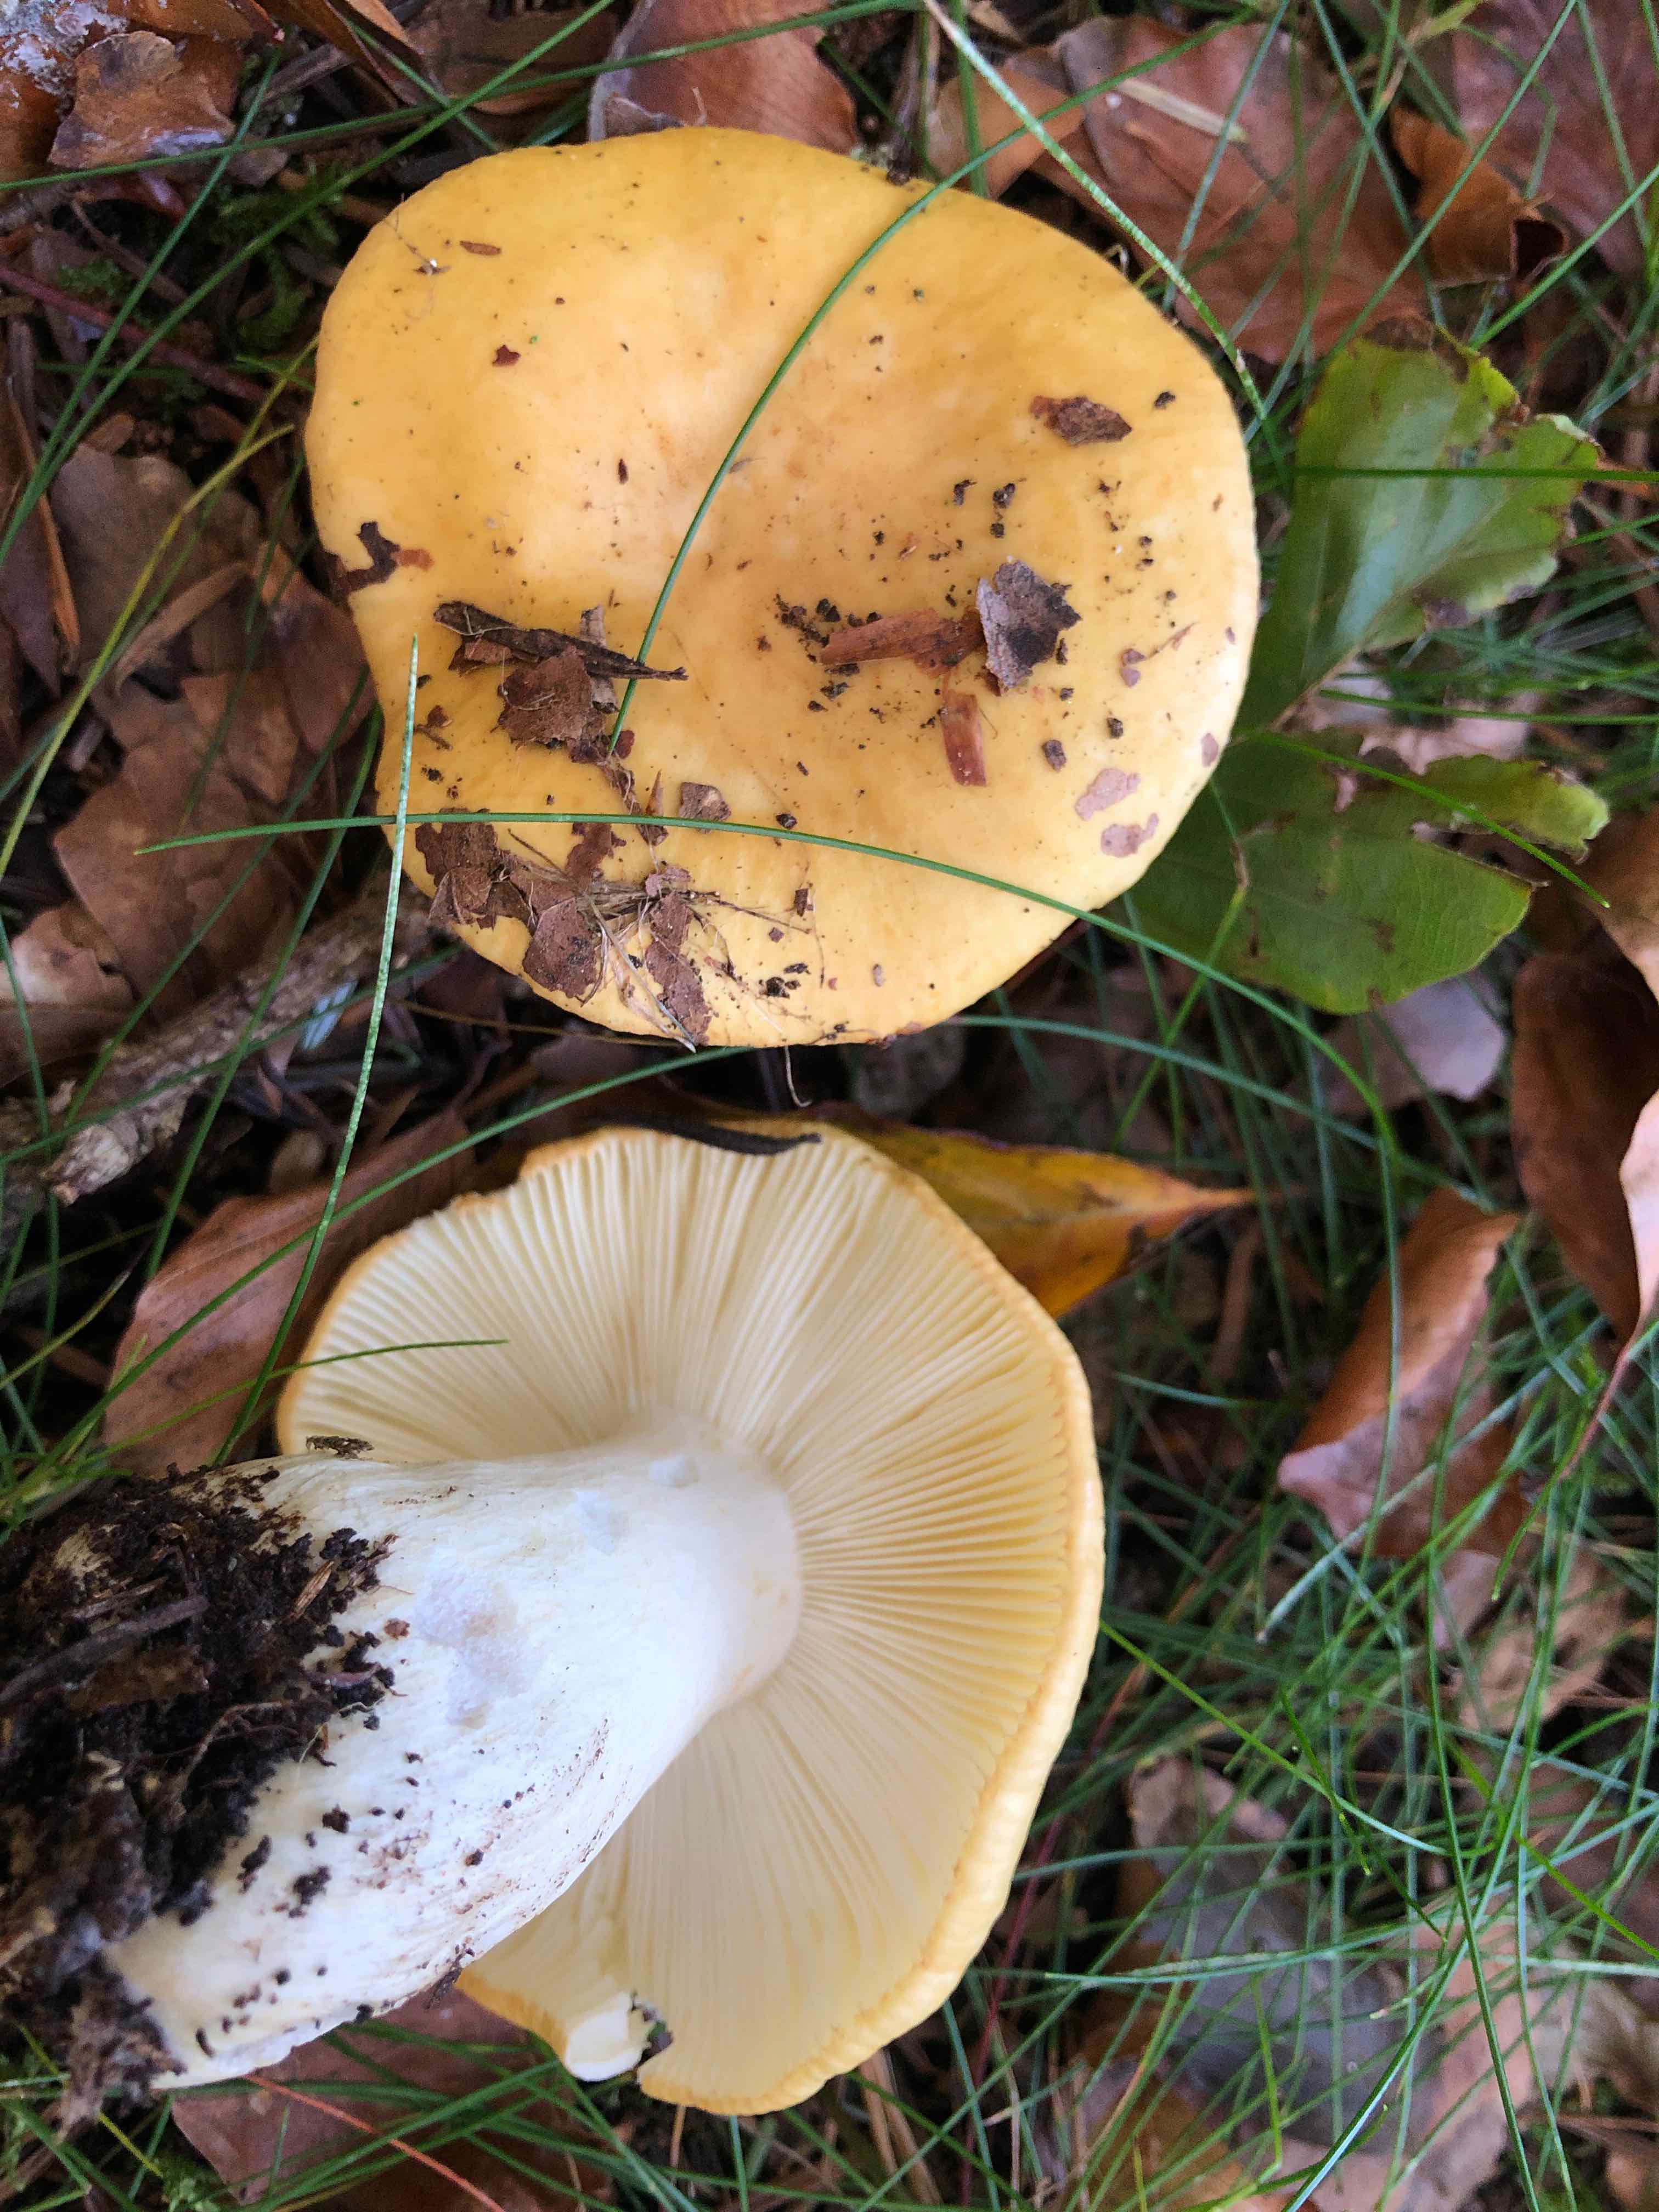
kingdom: Fungi
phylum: Basidiomycota
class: Agaricomycetes
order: Russulales
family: Russulaceae
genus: Russula
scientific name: Russula ochroleuca
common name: okkergul skørhat
